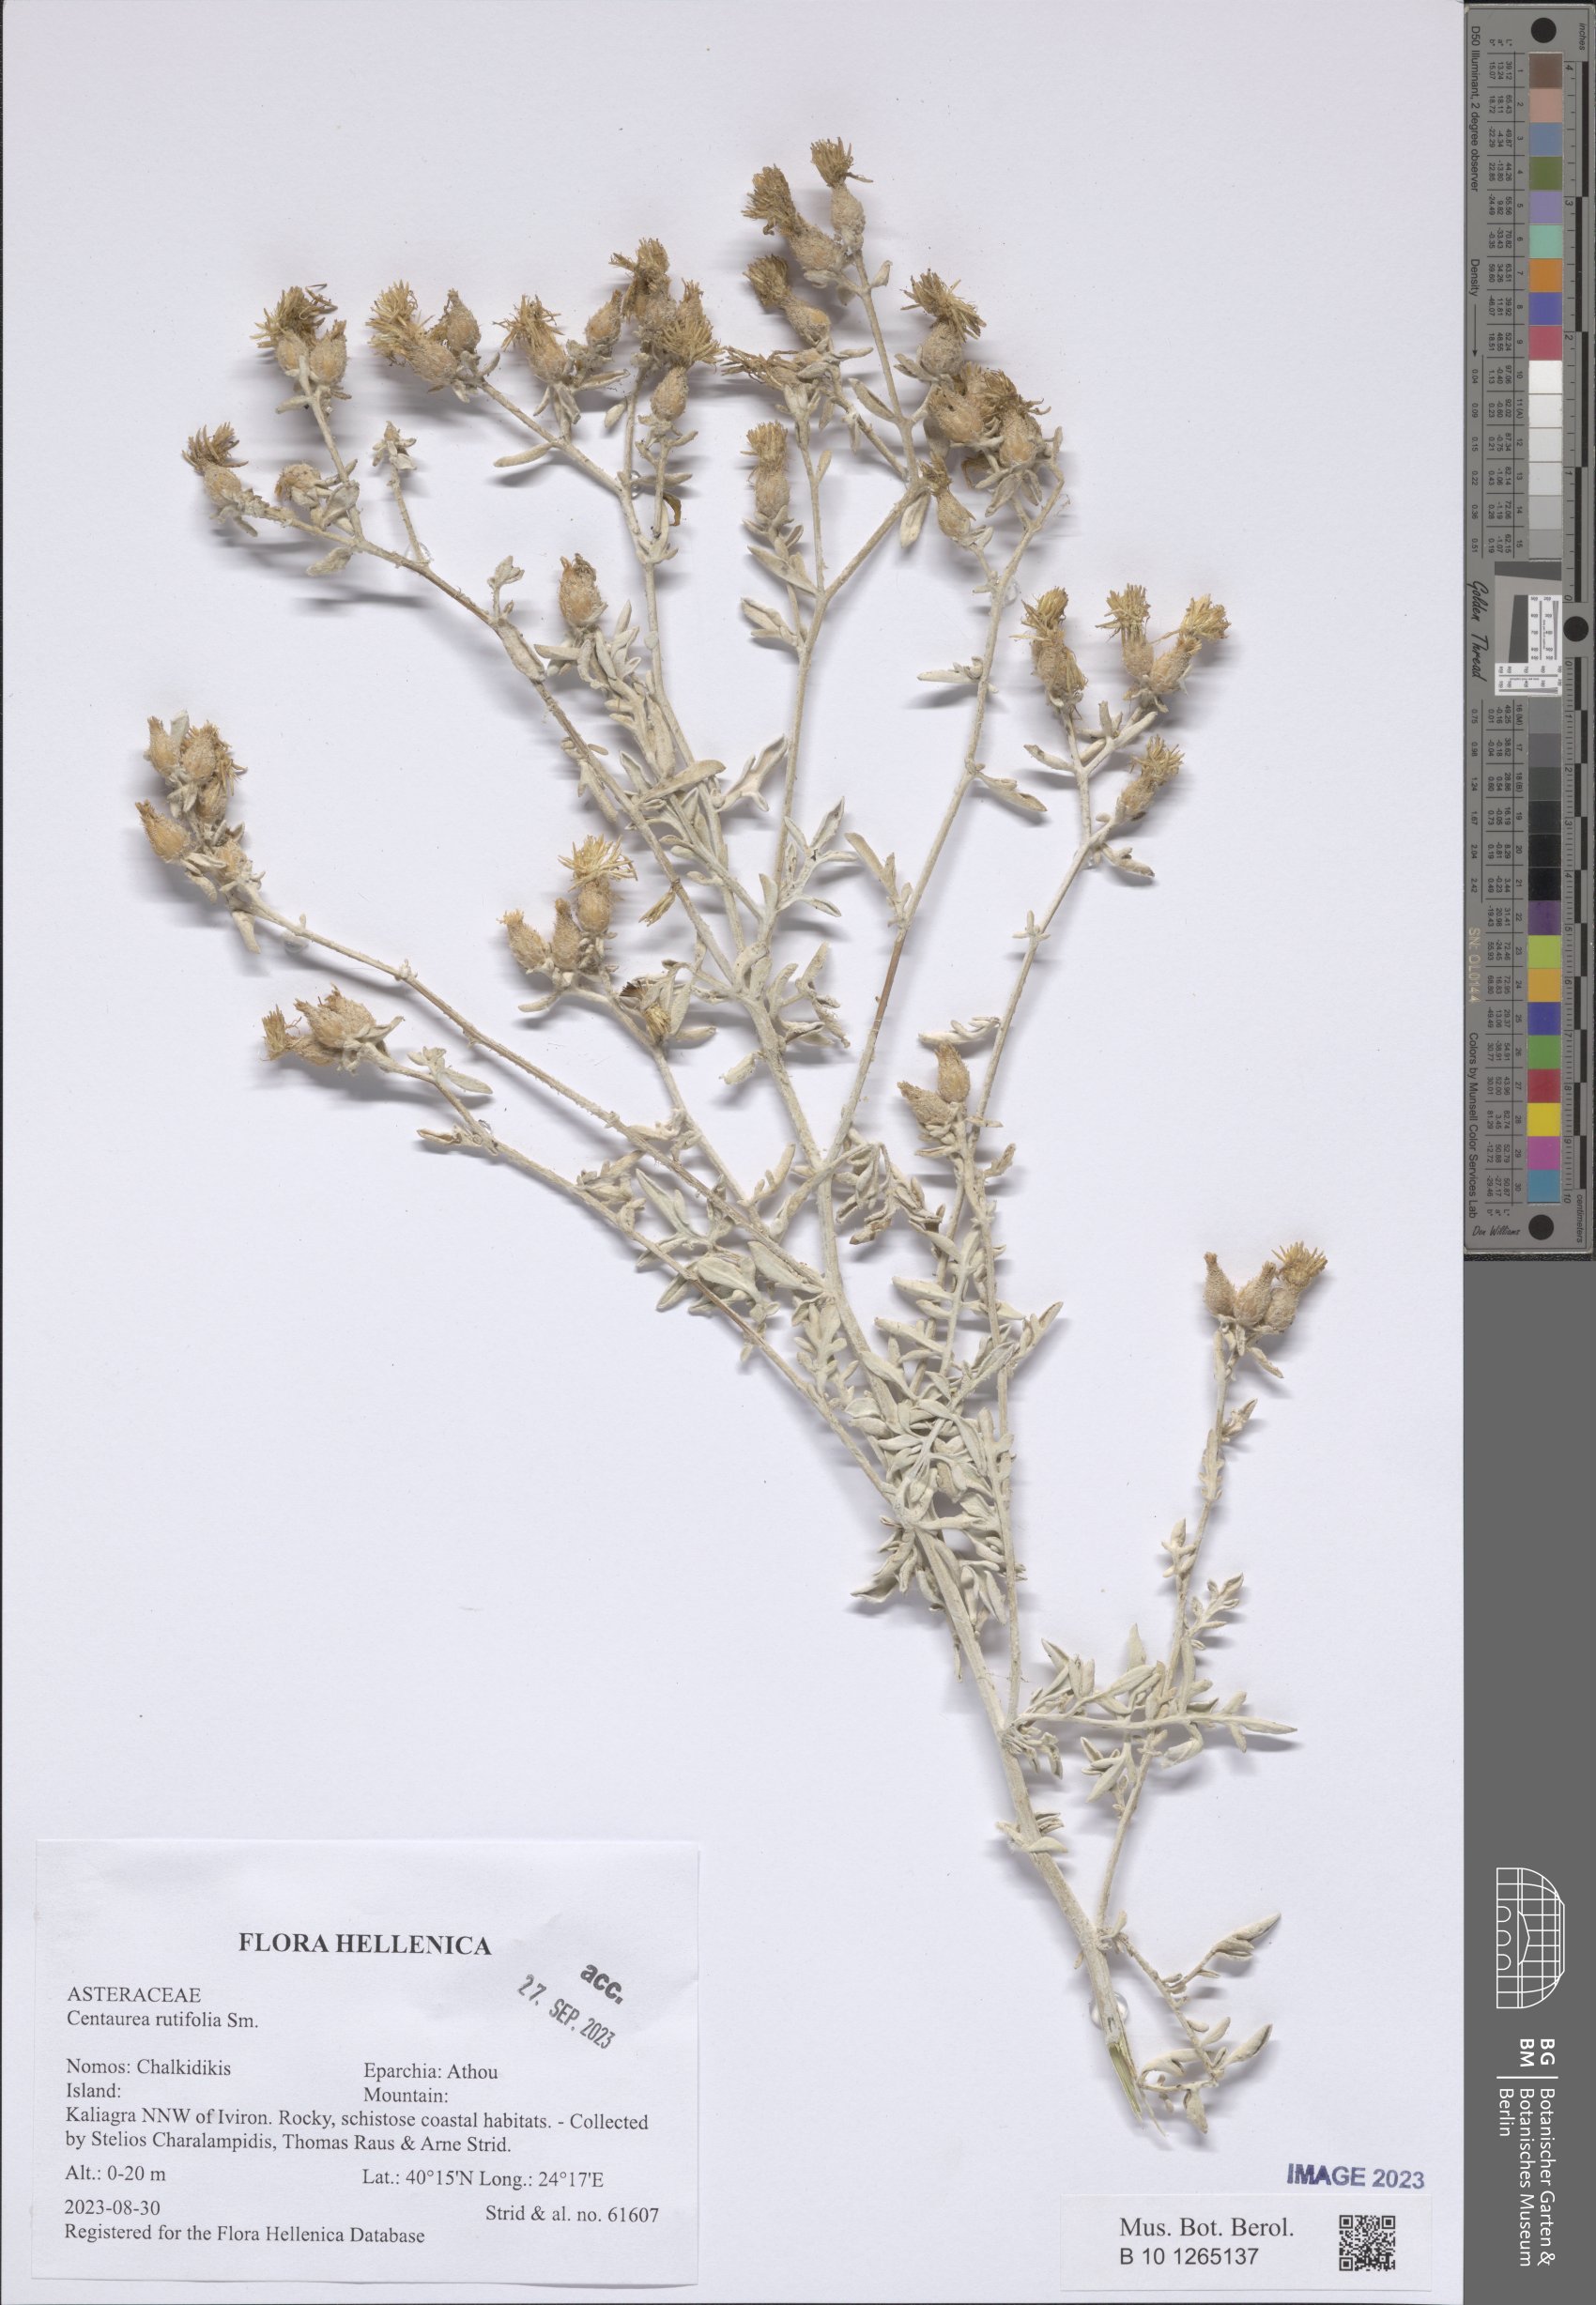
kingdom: Plantae
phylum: Tracheophyta
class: Magnoliopsida
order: Asterales
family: Asteraceae
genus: Centaurea
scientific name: Centaurea rutifolia
